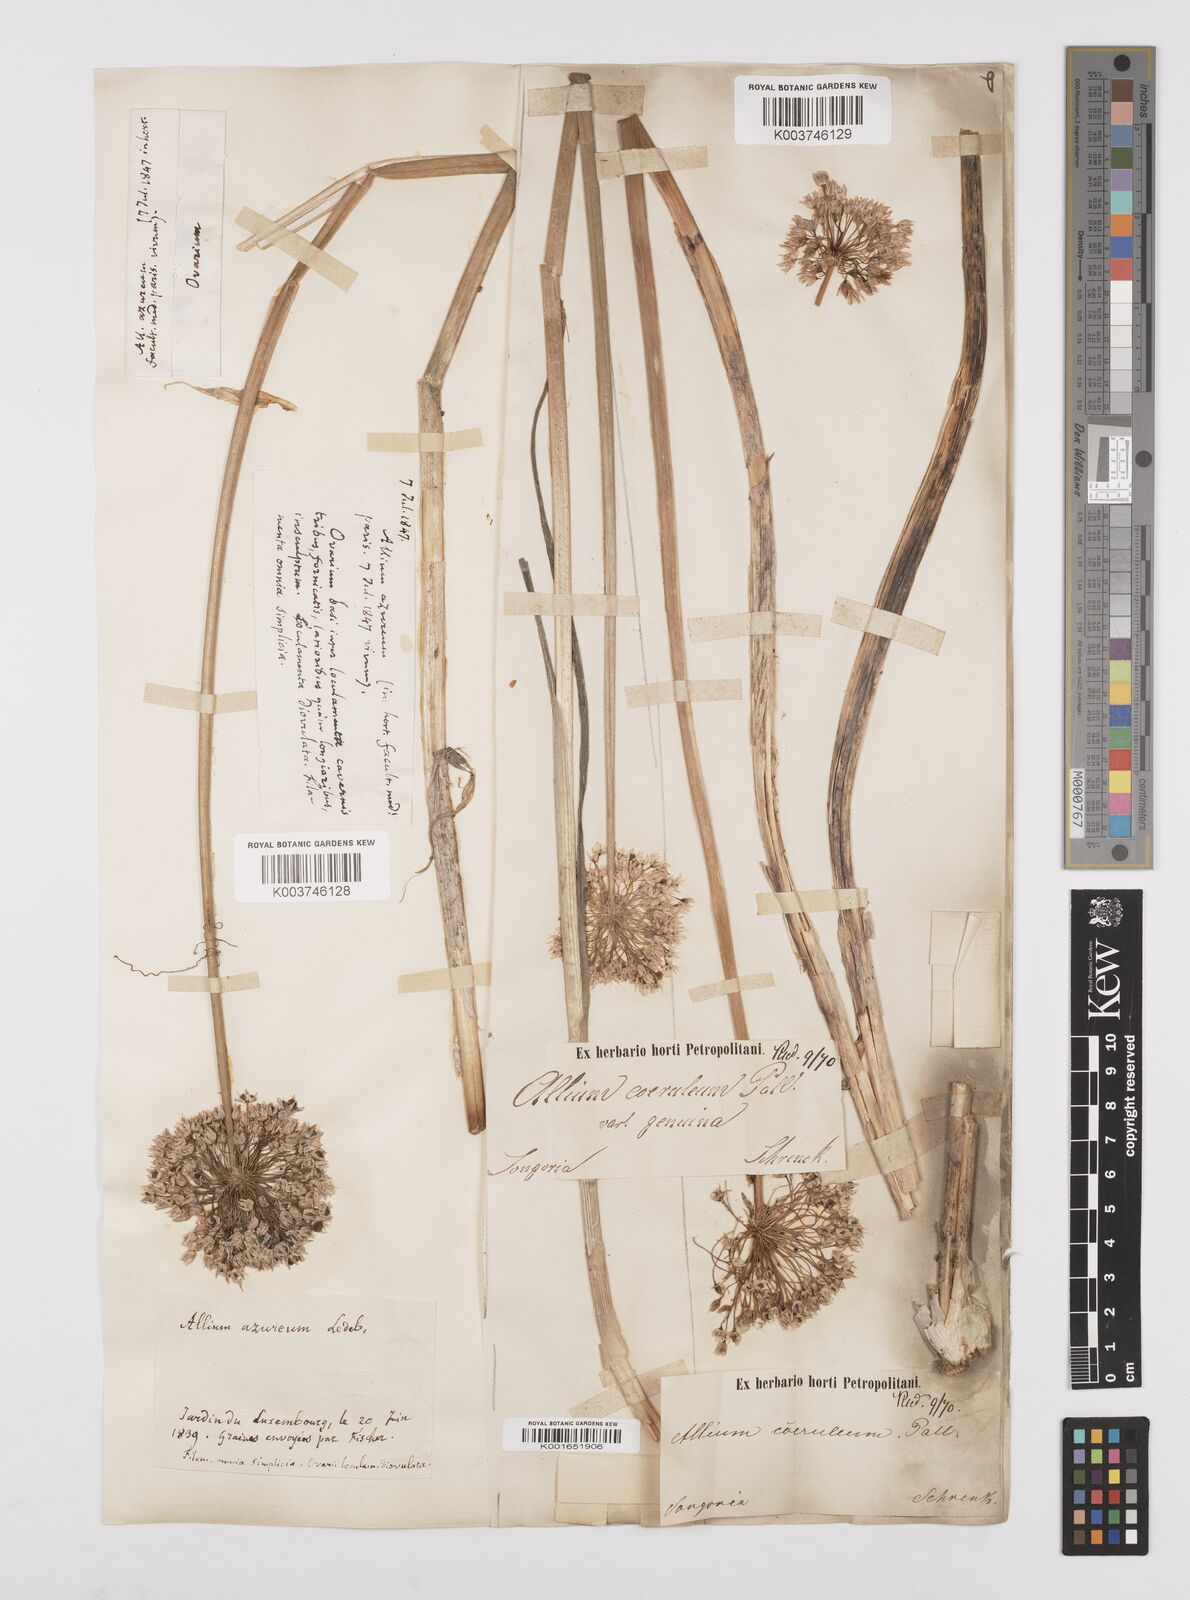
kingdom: Plantae
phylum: Tracheophyta
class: Liliopsida
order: Asparagales
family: Amaryllidaceae
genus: Allium
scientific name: Allium caeruleum
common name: Blue-of-the-heavens
